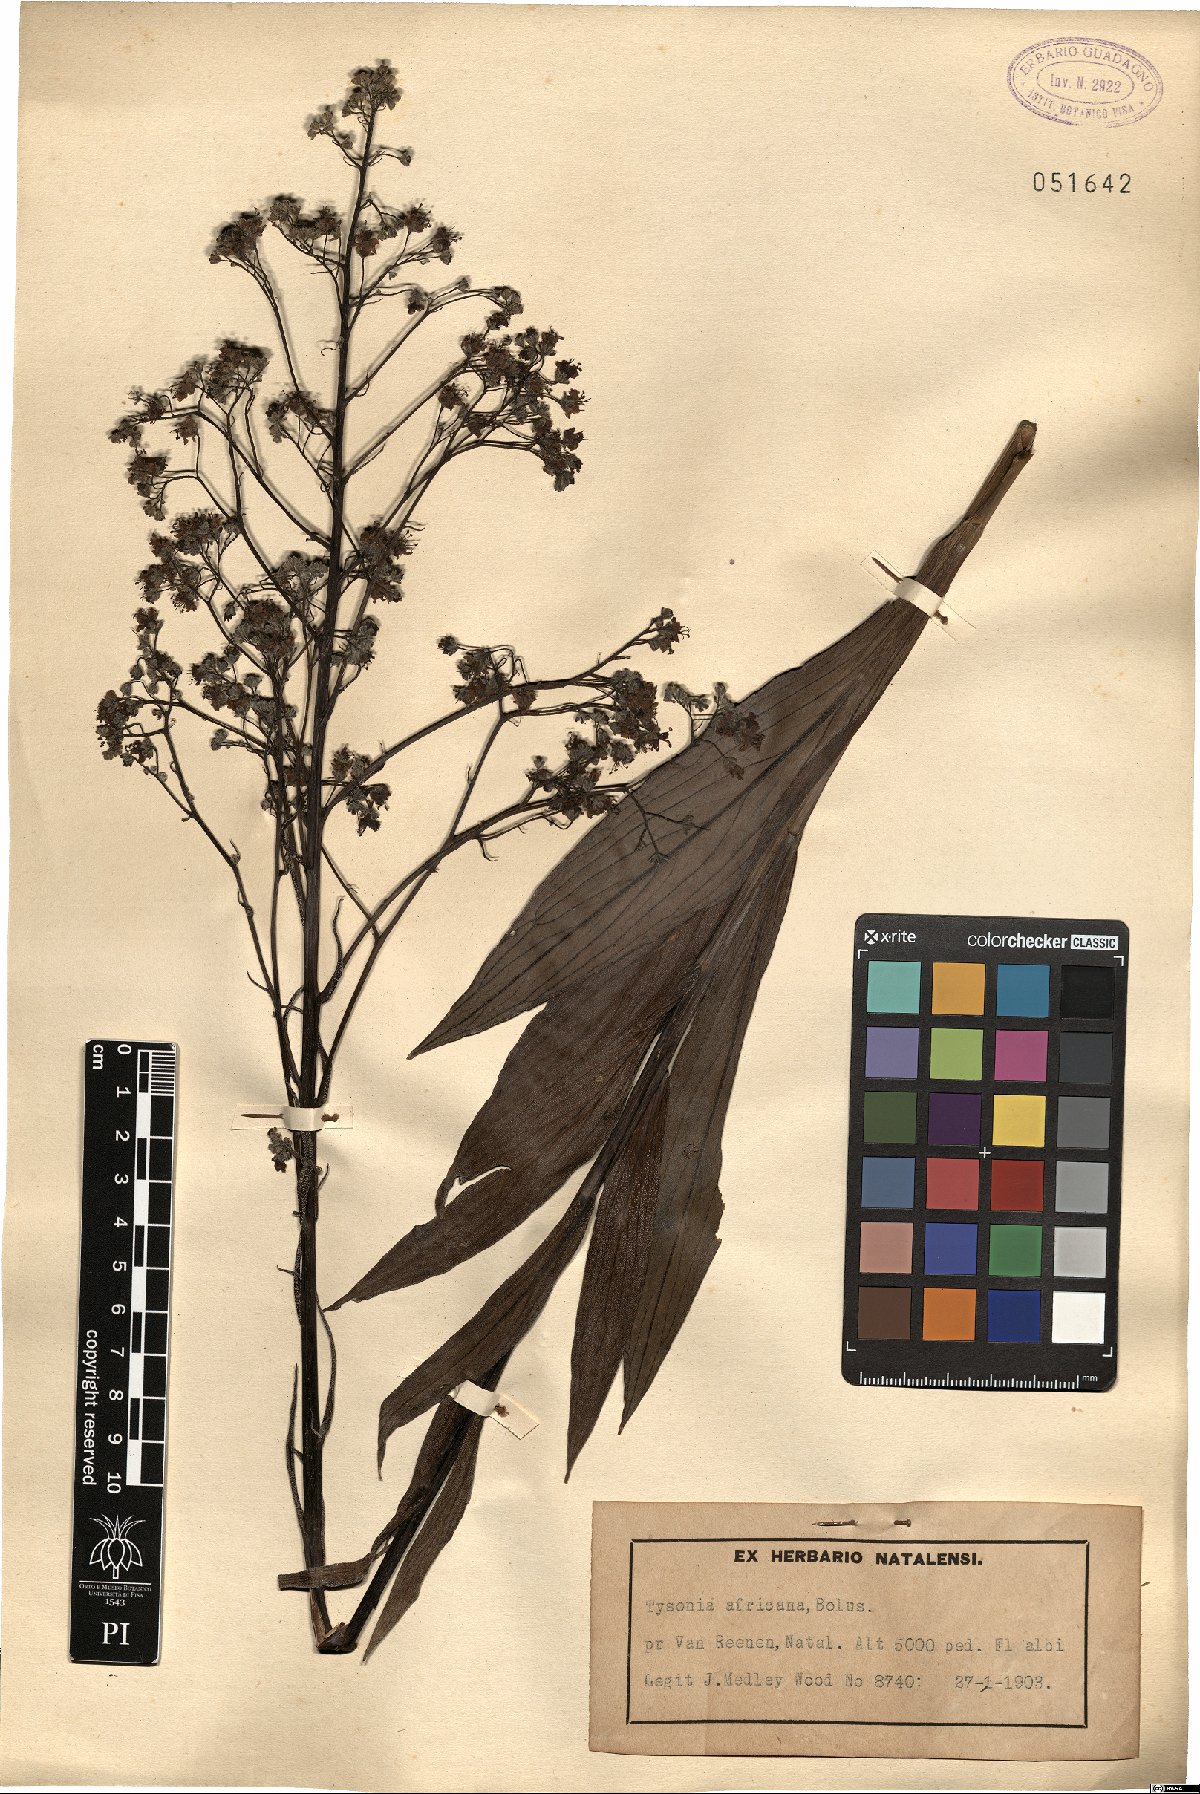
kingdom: Plantae
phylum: Tracheophyta
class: Magnoliopsida
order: Boraginales
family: Boraginaceae
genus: Afrotysonia
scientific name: Afrotysonia africana
